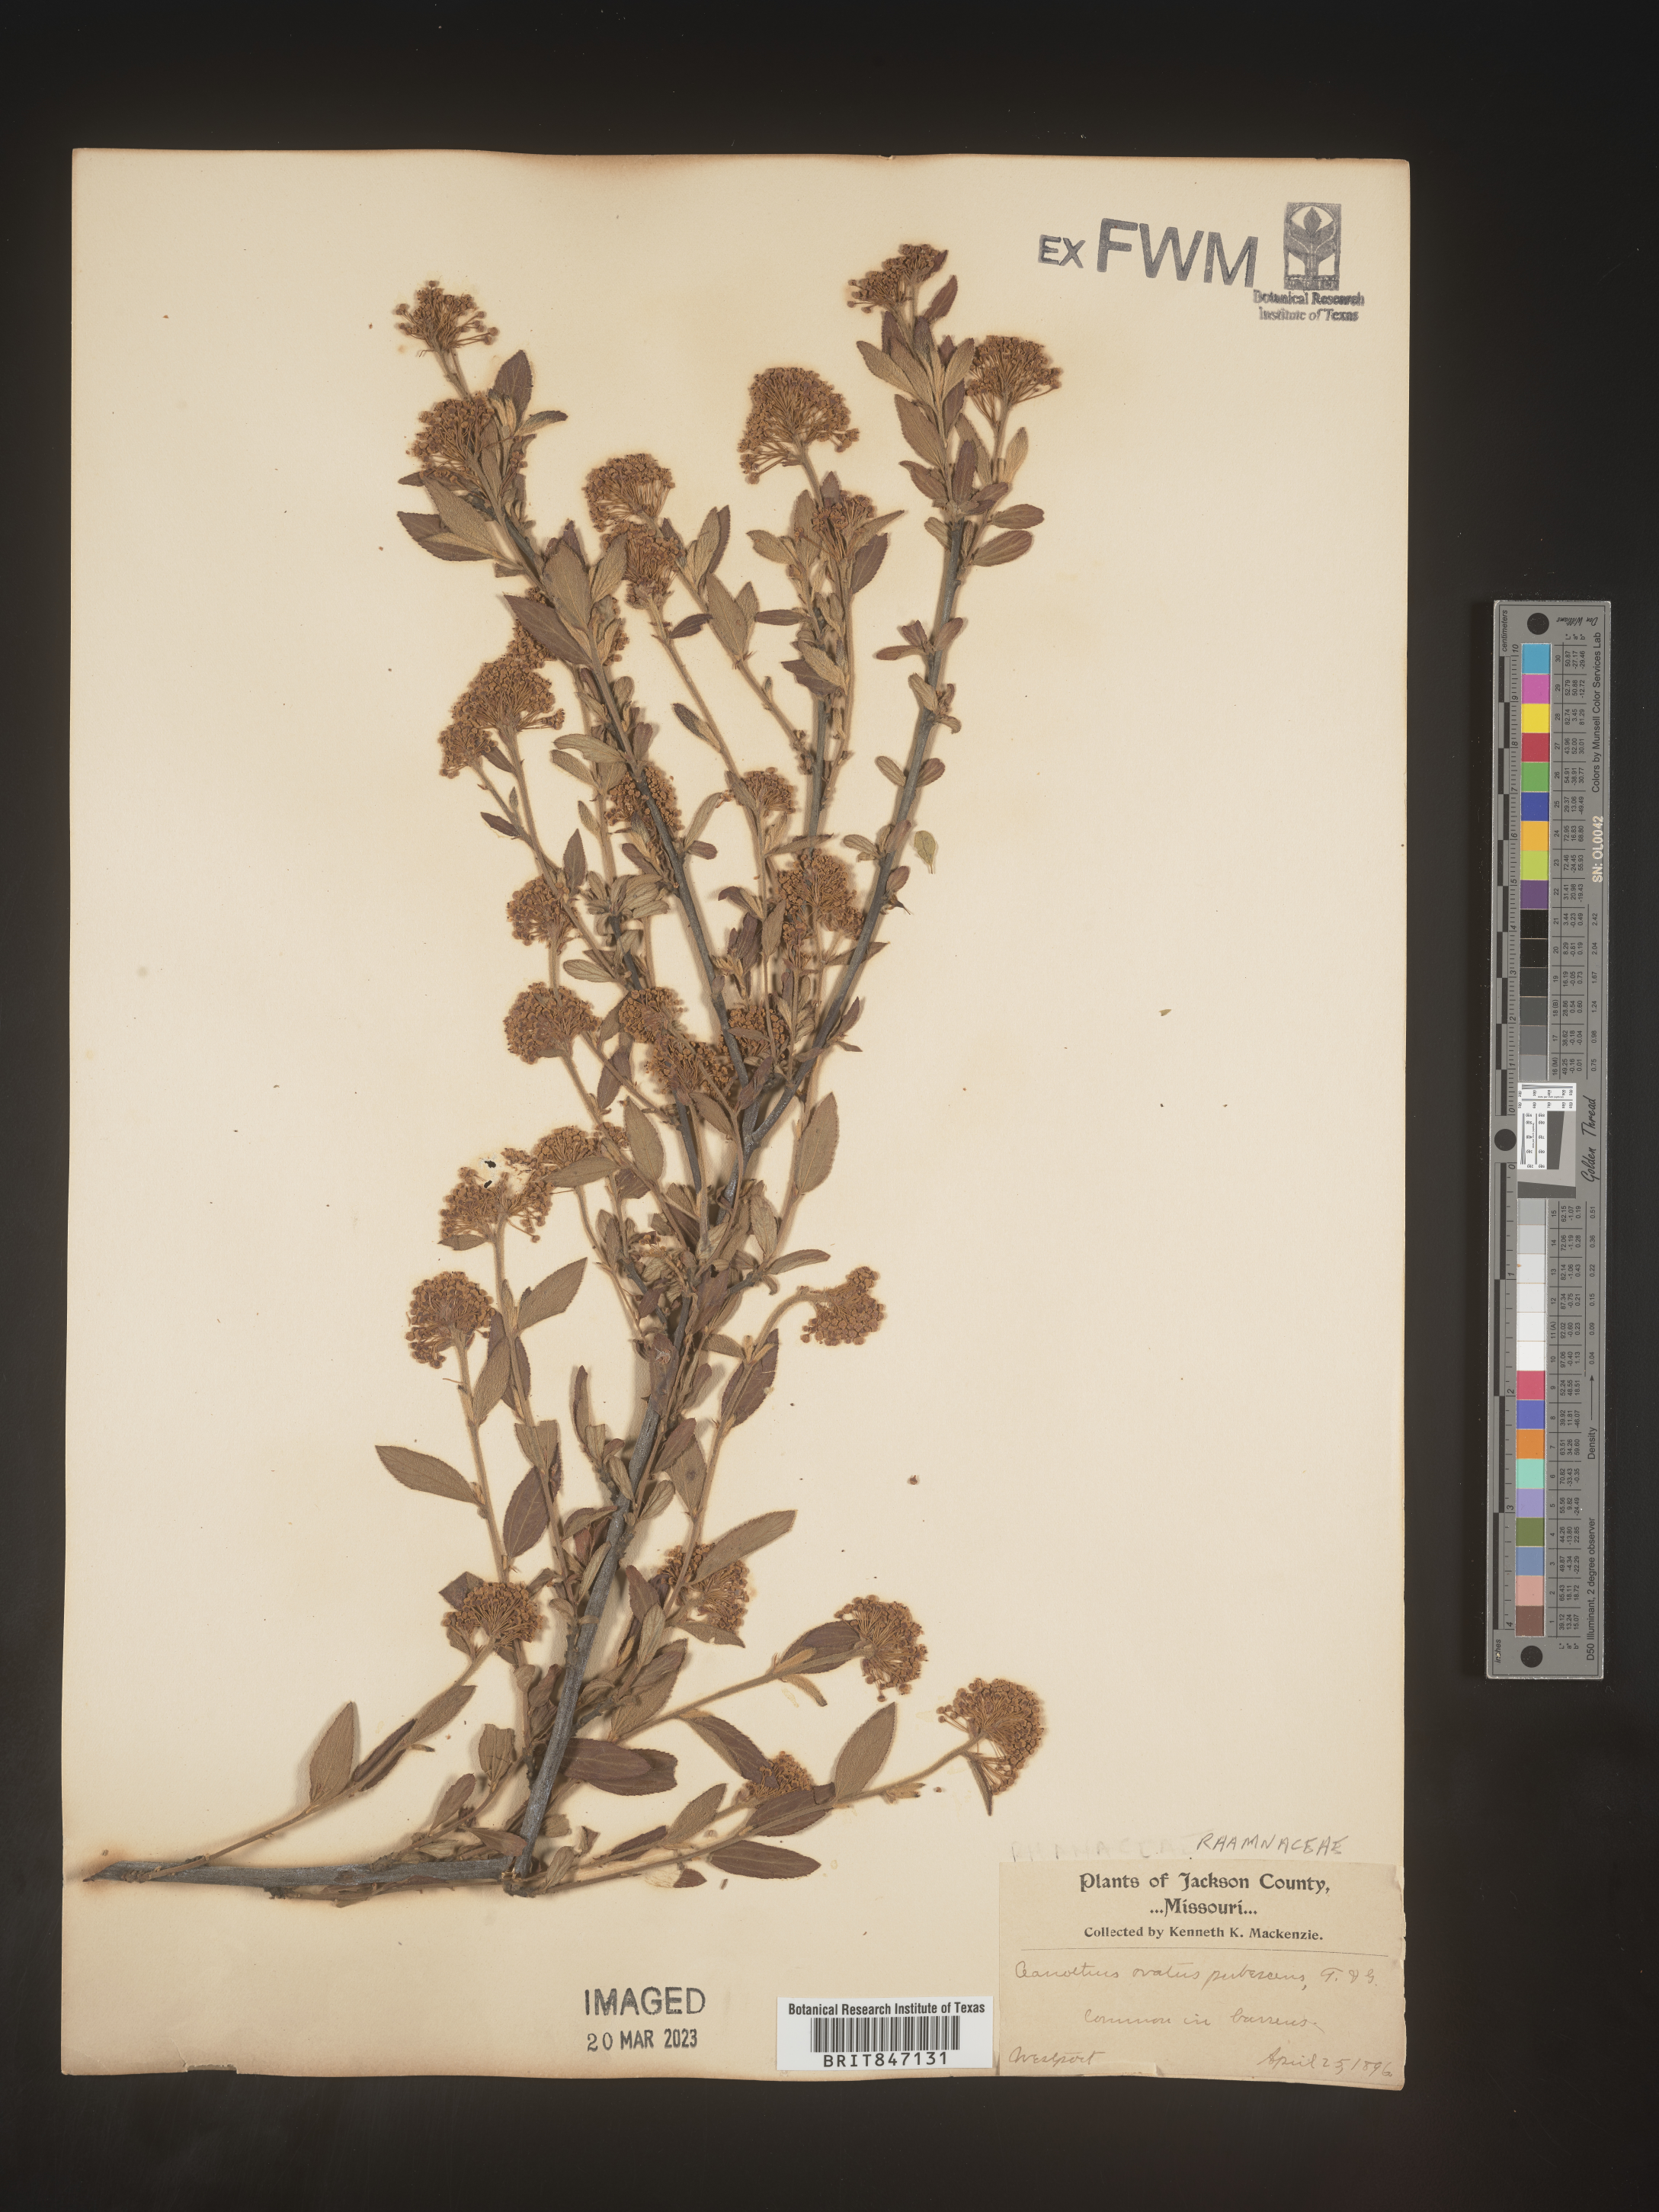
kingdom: Plantae
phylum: Tracheophyta
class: Magnoliopsida
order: Rosales
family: Rhamnaceae
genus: Ceanothus
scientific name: Ceanothus
